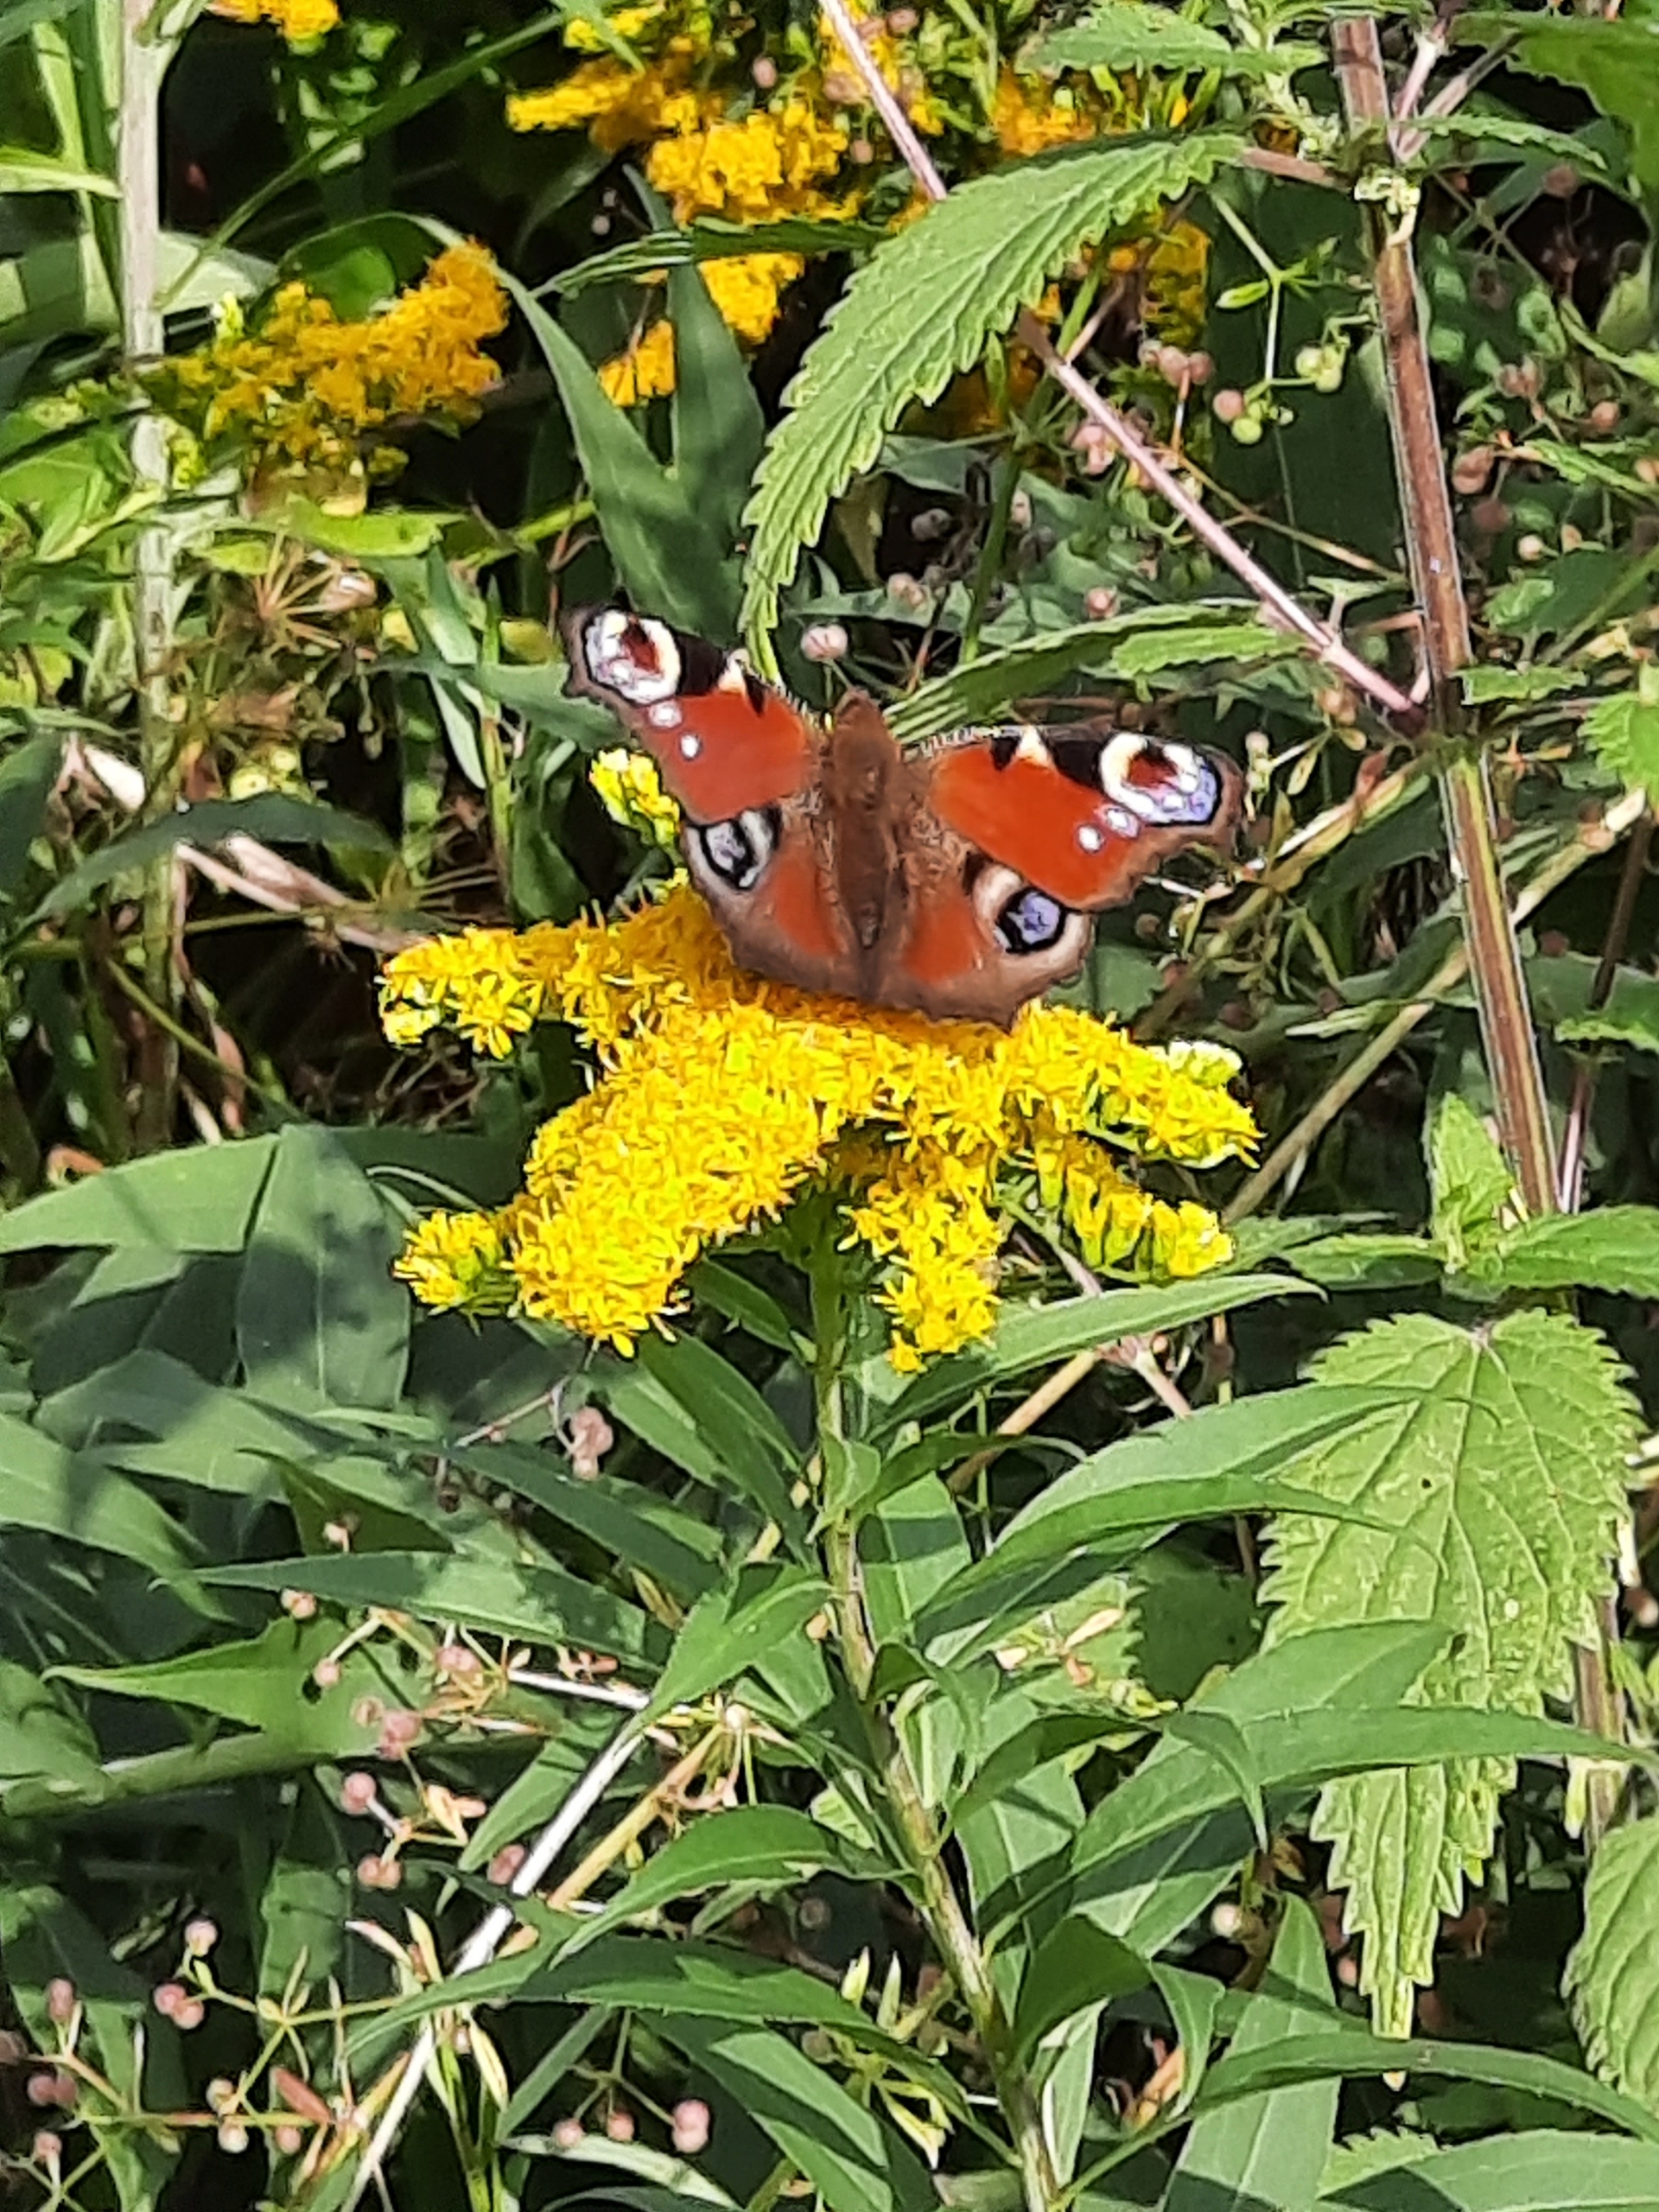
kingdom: Animalia
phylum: Arthropoda
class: Insecta
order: Lepidoptera
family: Nymphalidae
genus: Aglais
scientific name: Aglais io
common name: Dagpåfugleøje
